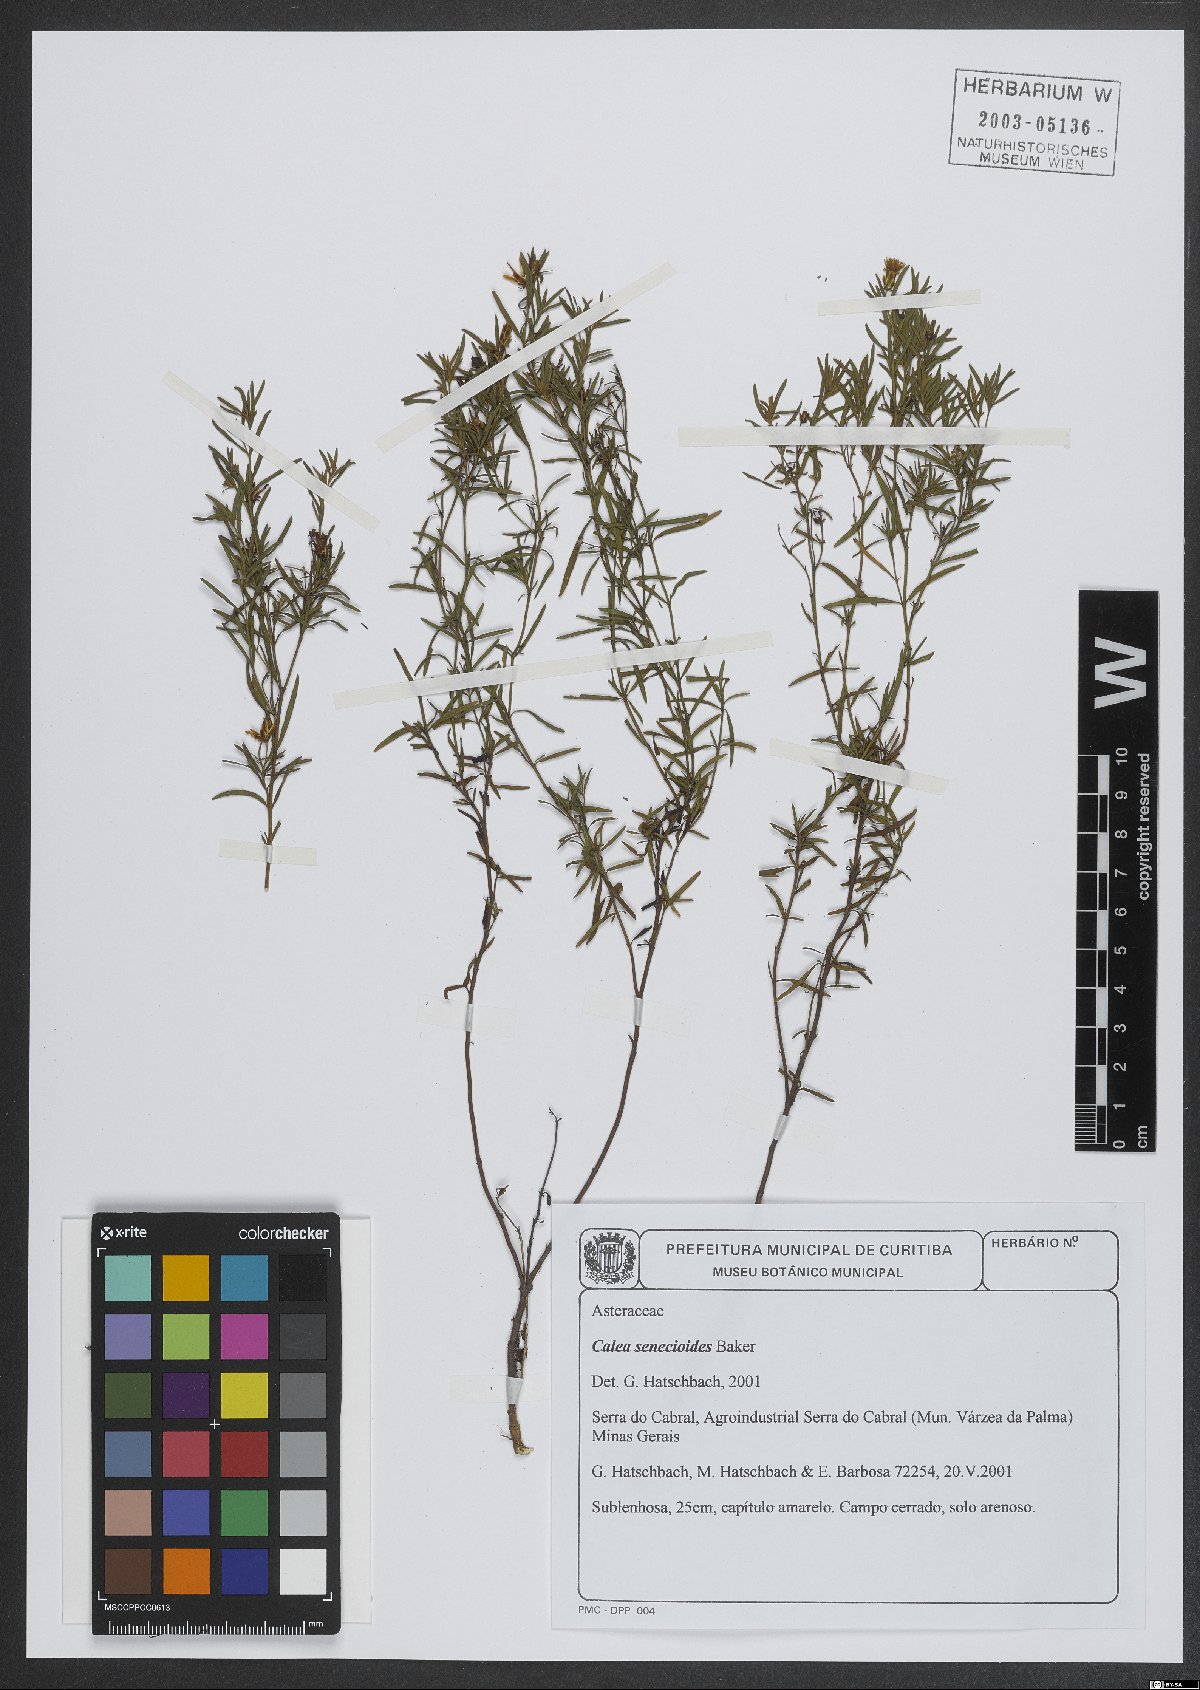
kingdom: Plantae
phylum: Tracheophyta
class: Magnoliopsida
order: Asterales
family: Asteraceae
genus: Calea
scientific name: Calea senecioides
